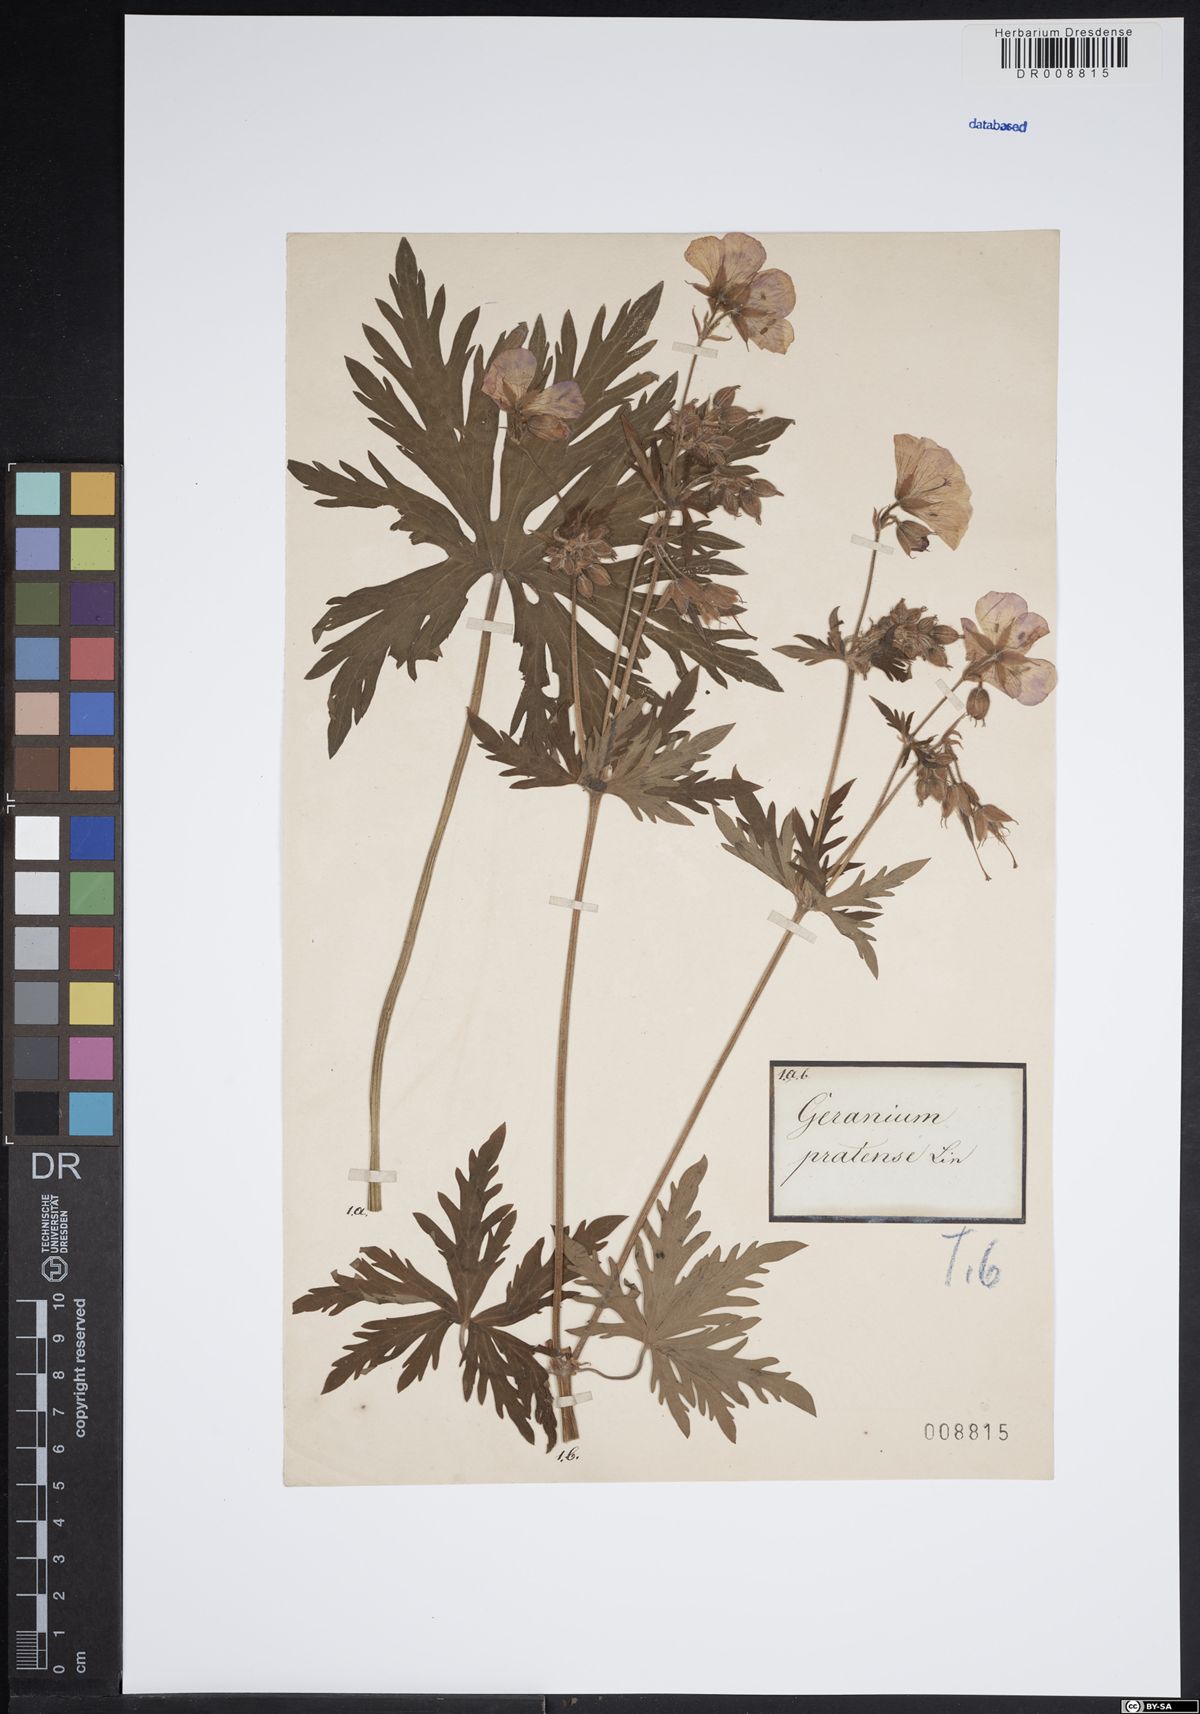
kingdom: Plantae
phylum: Tracheophyta
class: Magnoliopsida
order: Geraniales
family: Geraniaceae
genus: Geranium
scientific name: Geranium pratense
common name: Meadow crane's-bill
